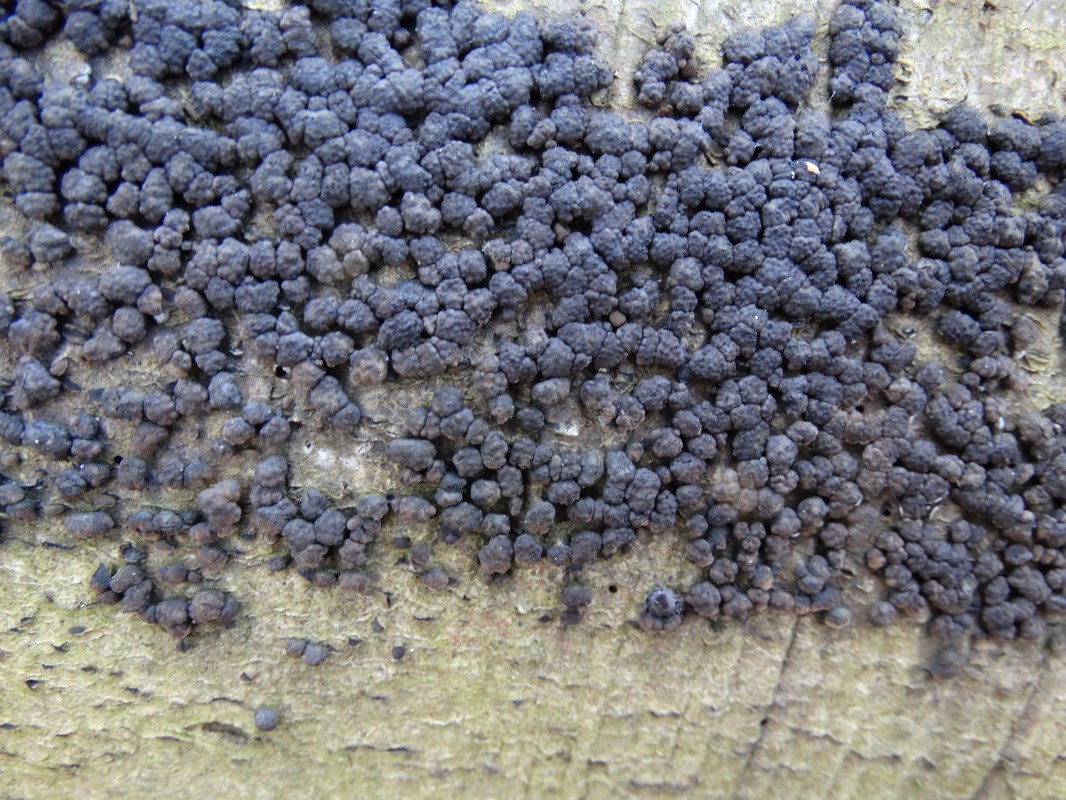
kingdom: Fungi
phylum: Ascomycota
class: Sordariomycetes
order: Xylariales
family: Hypoxylaceae
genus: Jackrogersella
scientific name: Jackrogersella cohaerens
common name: sammenflydende kulbær
